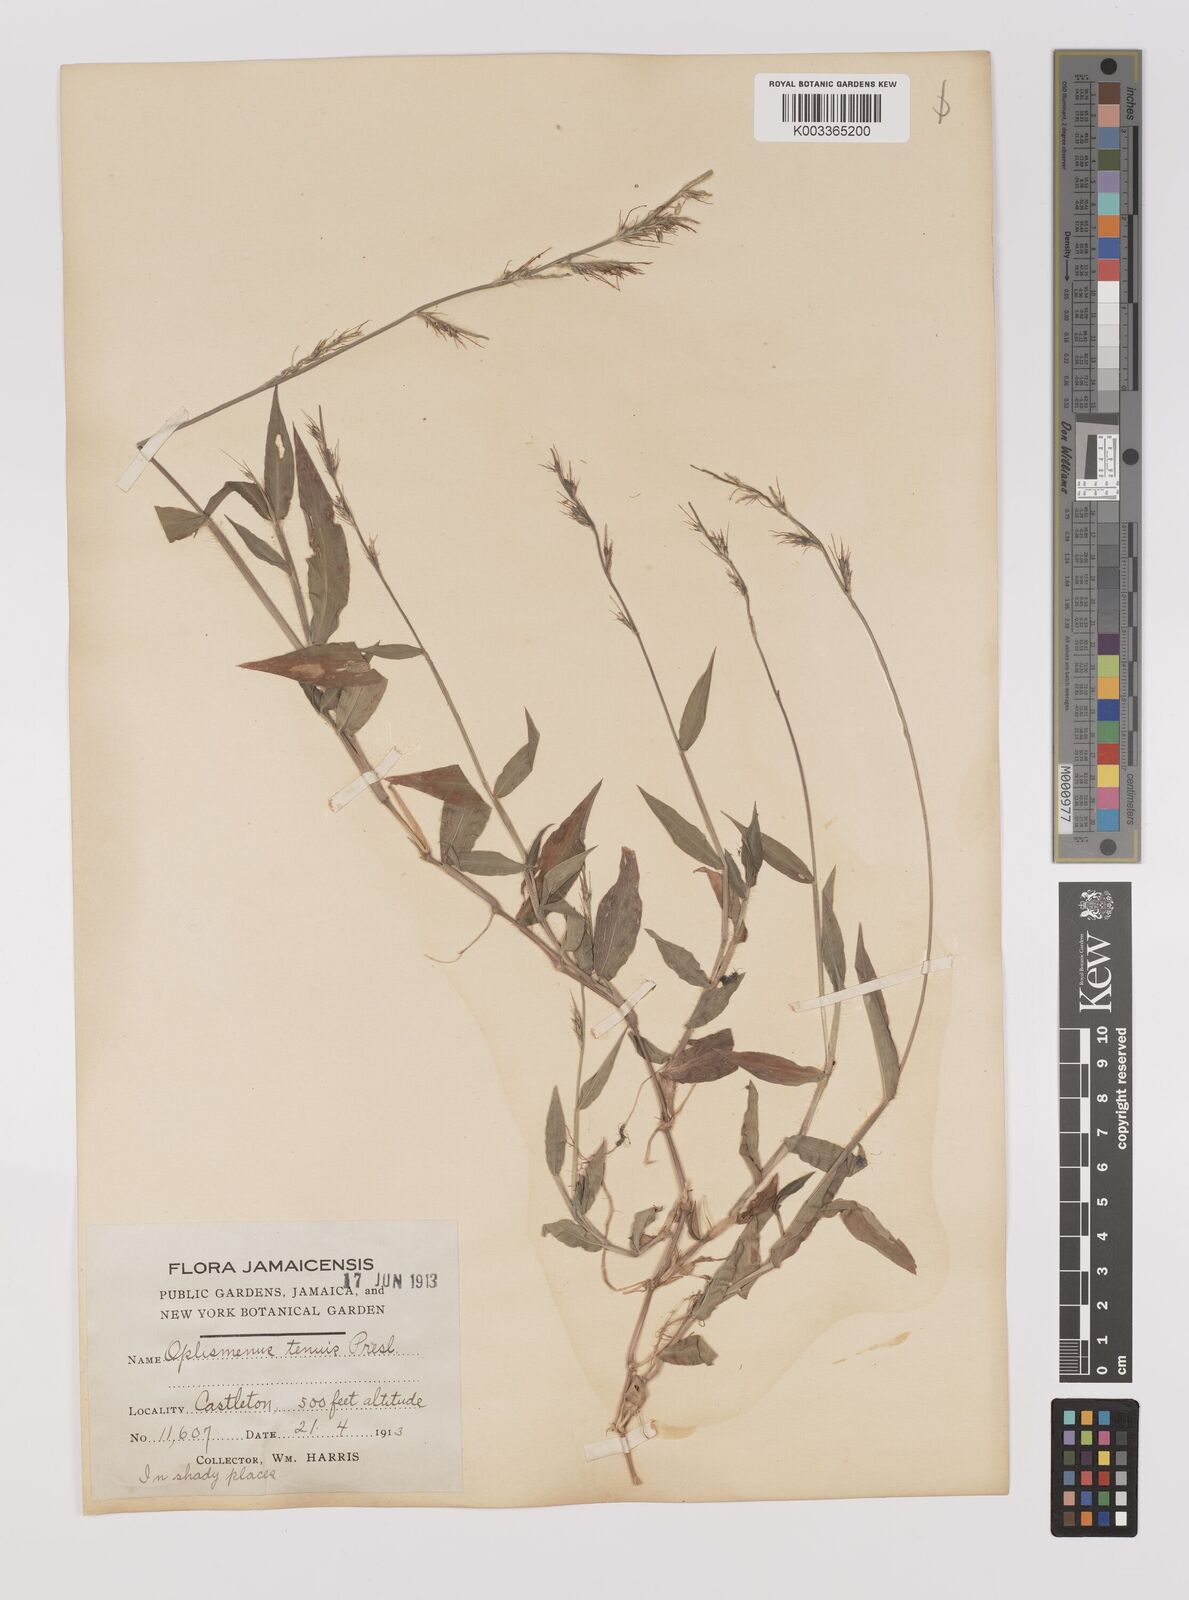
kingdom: Plantae
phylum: Tracheophyta
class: Liliopsida
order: Poales
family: Poaceae
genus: Oplismenus
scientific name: Oplismenus hirtellus
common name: Basketgrass
